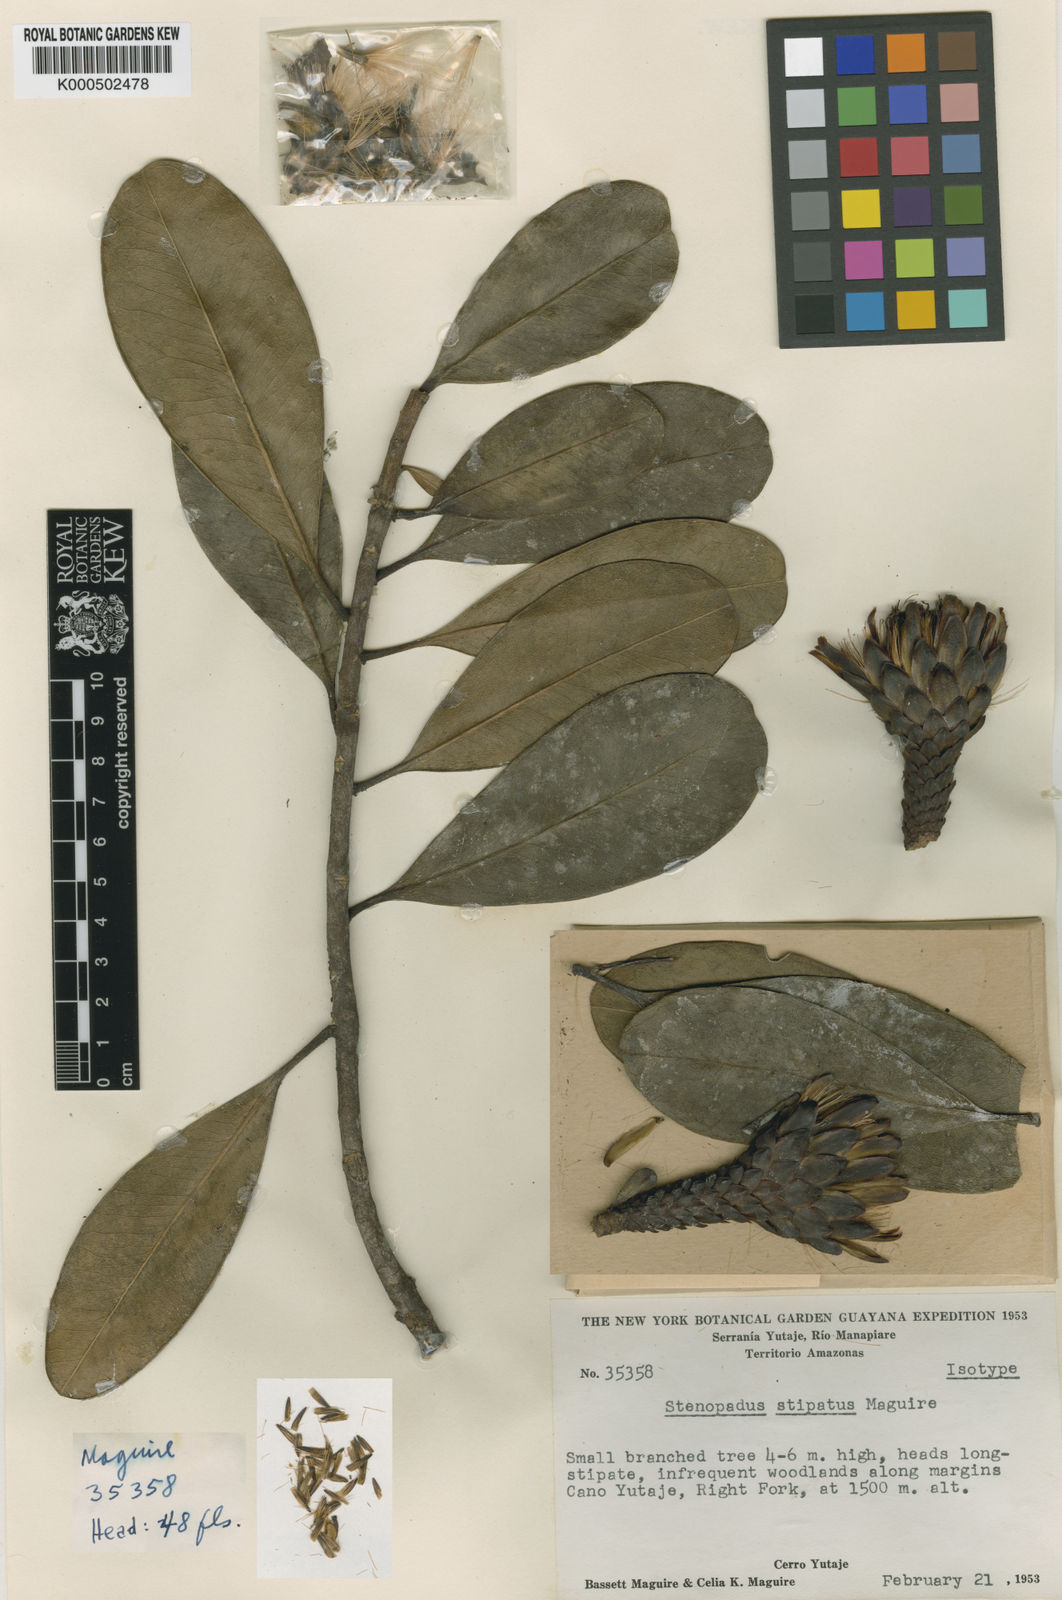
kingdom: Plantae
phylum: Tracheophyta
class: Magnoliopsida
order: Asterales
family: Asteraceae
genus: Stenopadus
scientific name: Stenopadus kunhardtii
